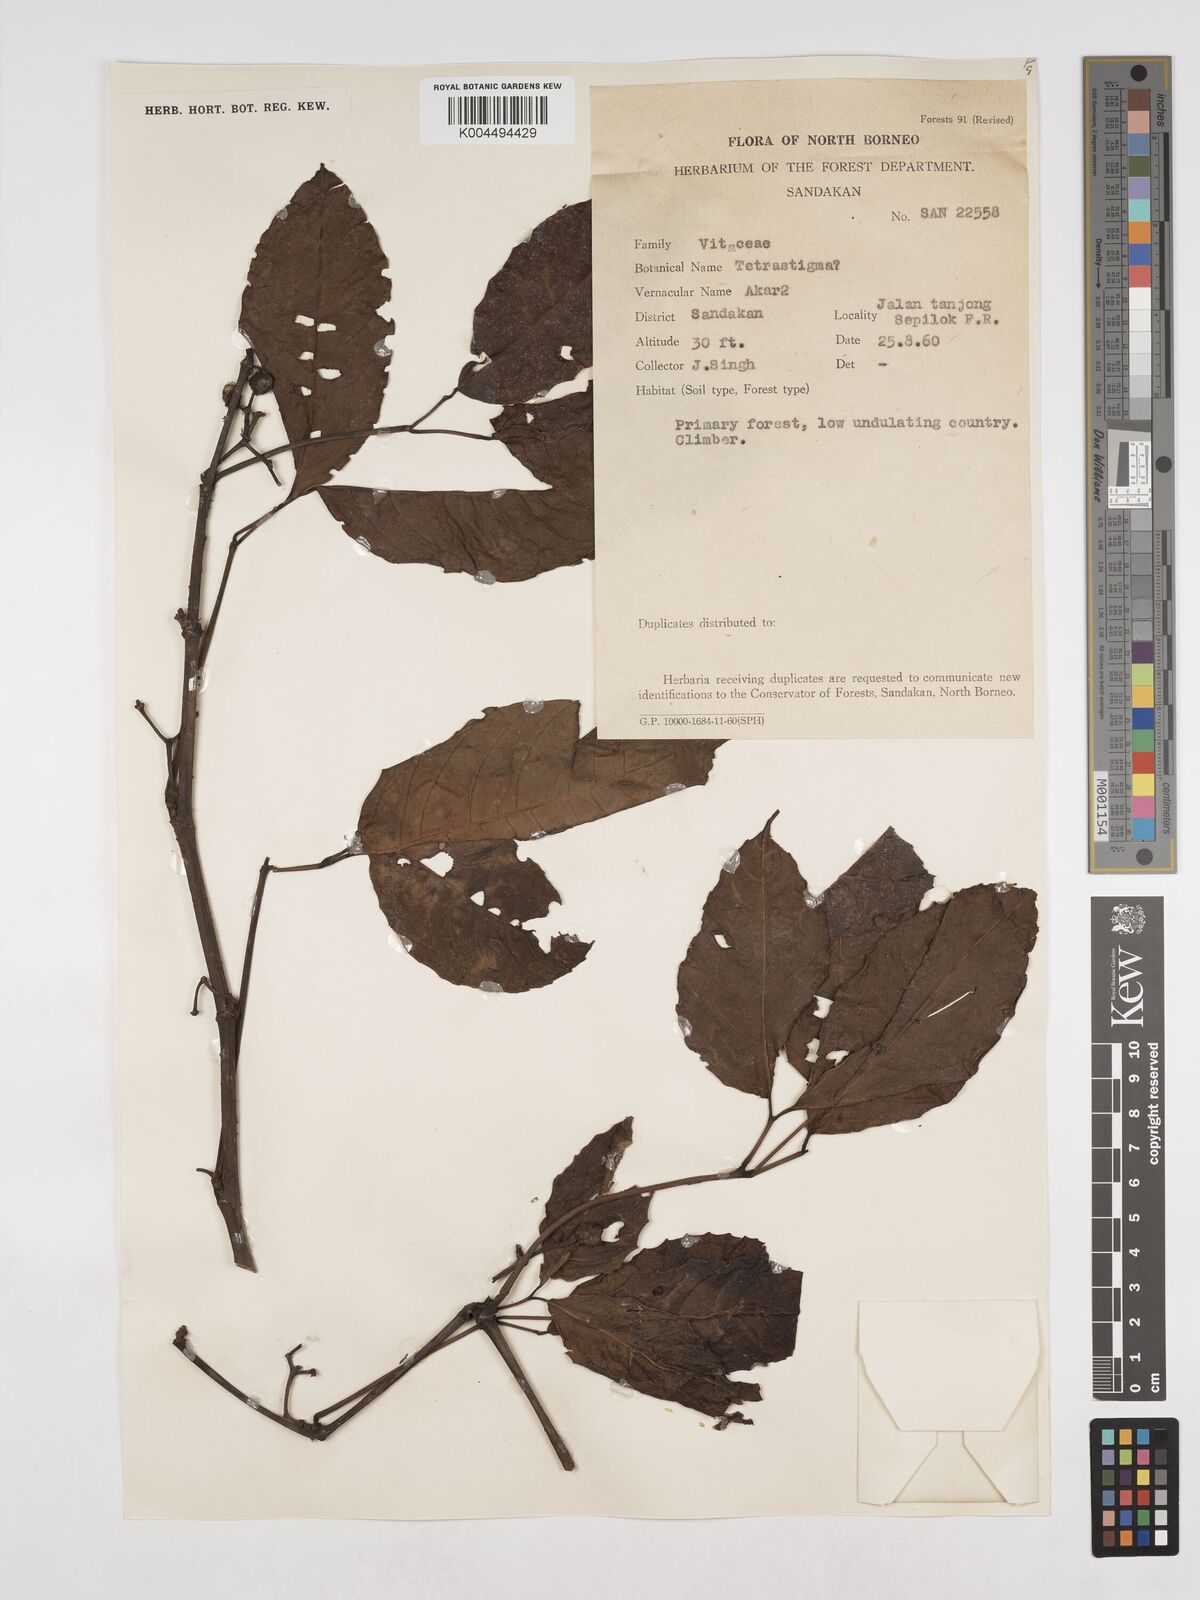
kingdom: Plantae
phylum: Tracheophyta
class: Magnoliopsida
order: Vitales
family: Vitaceae
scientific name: Vitaceae
